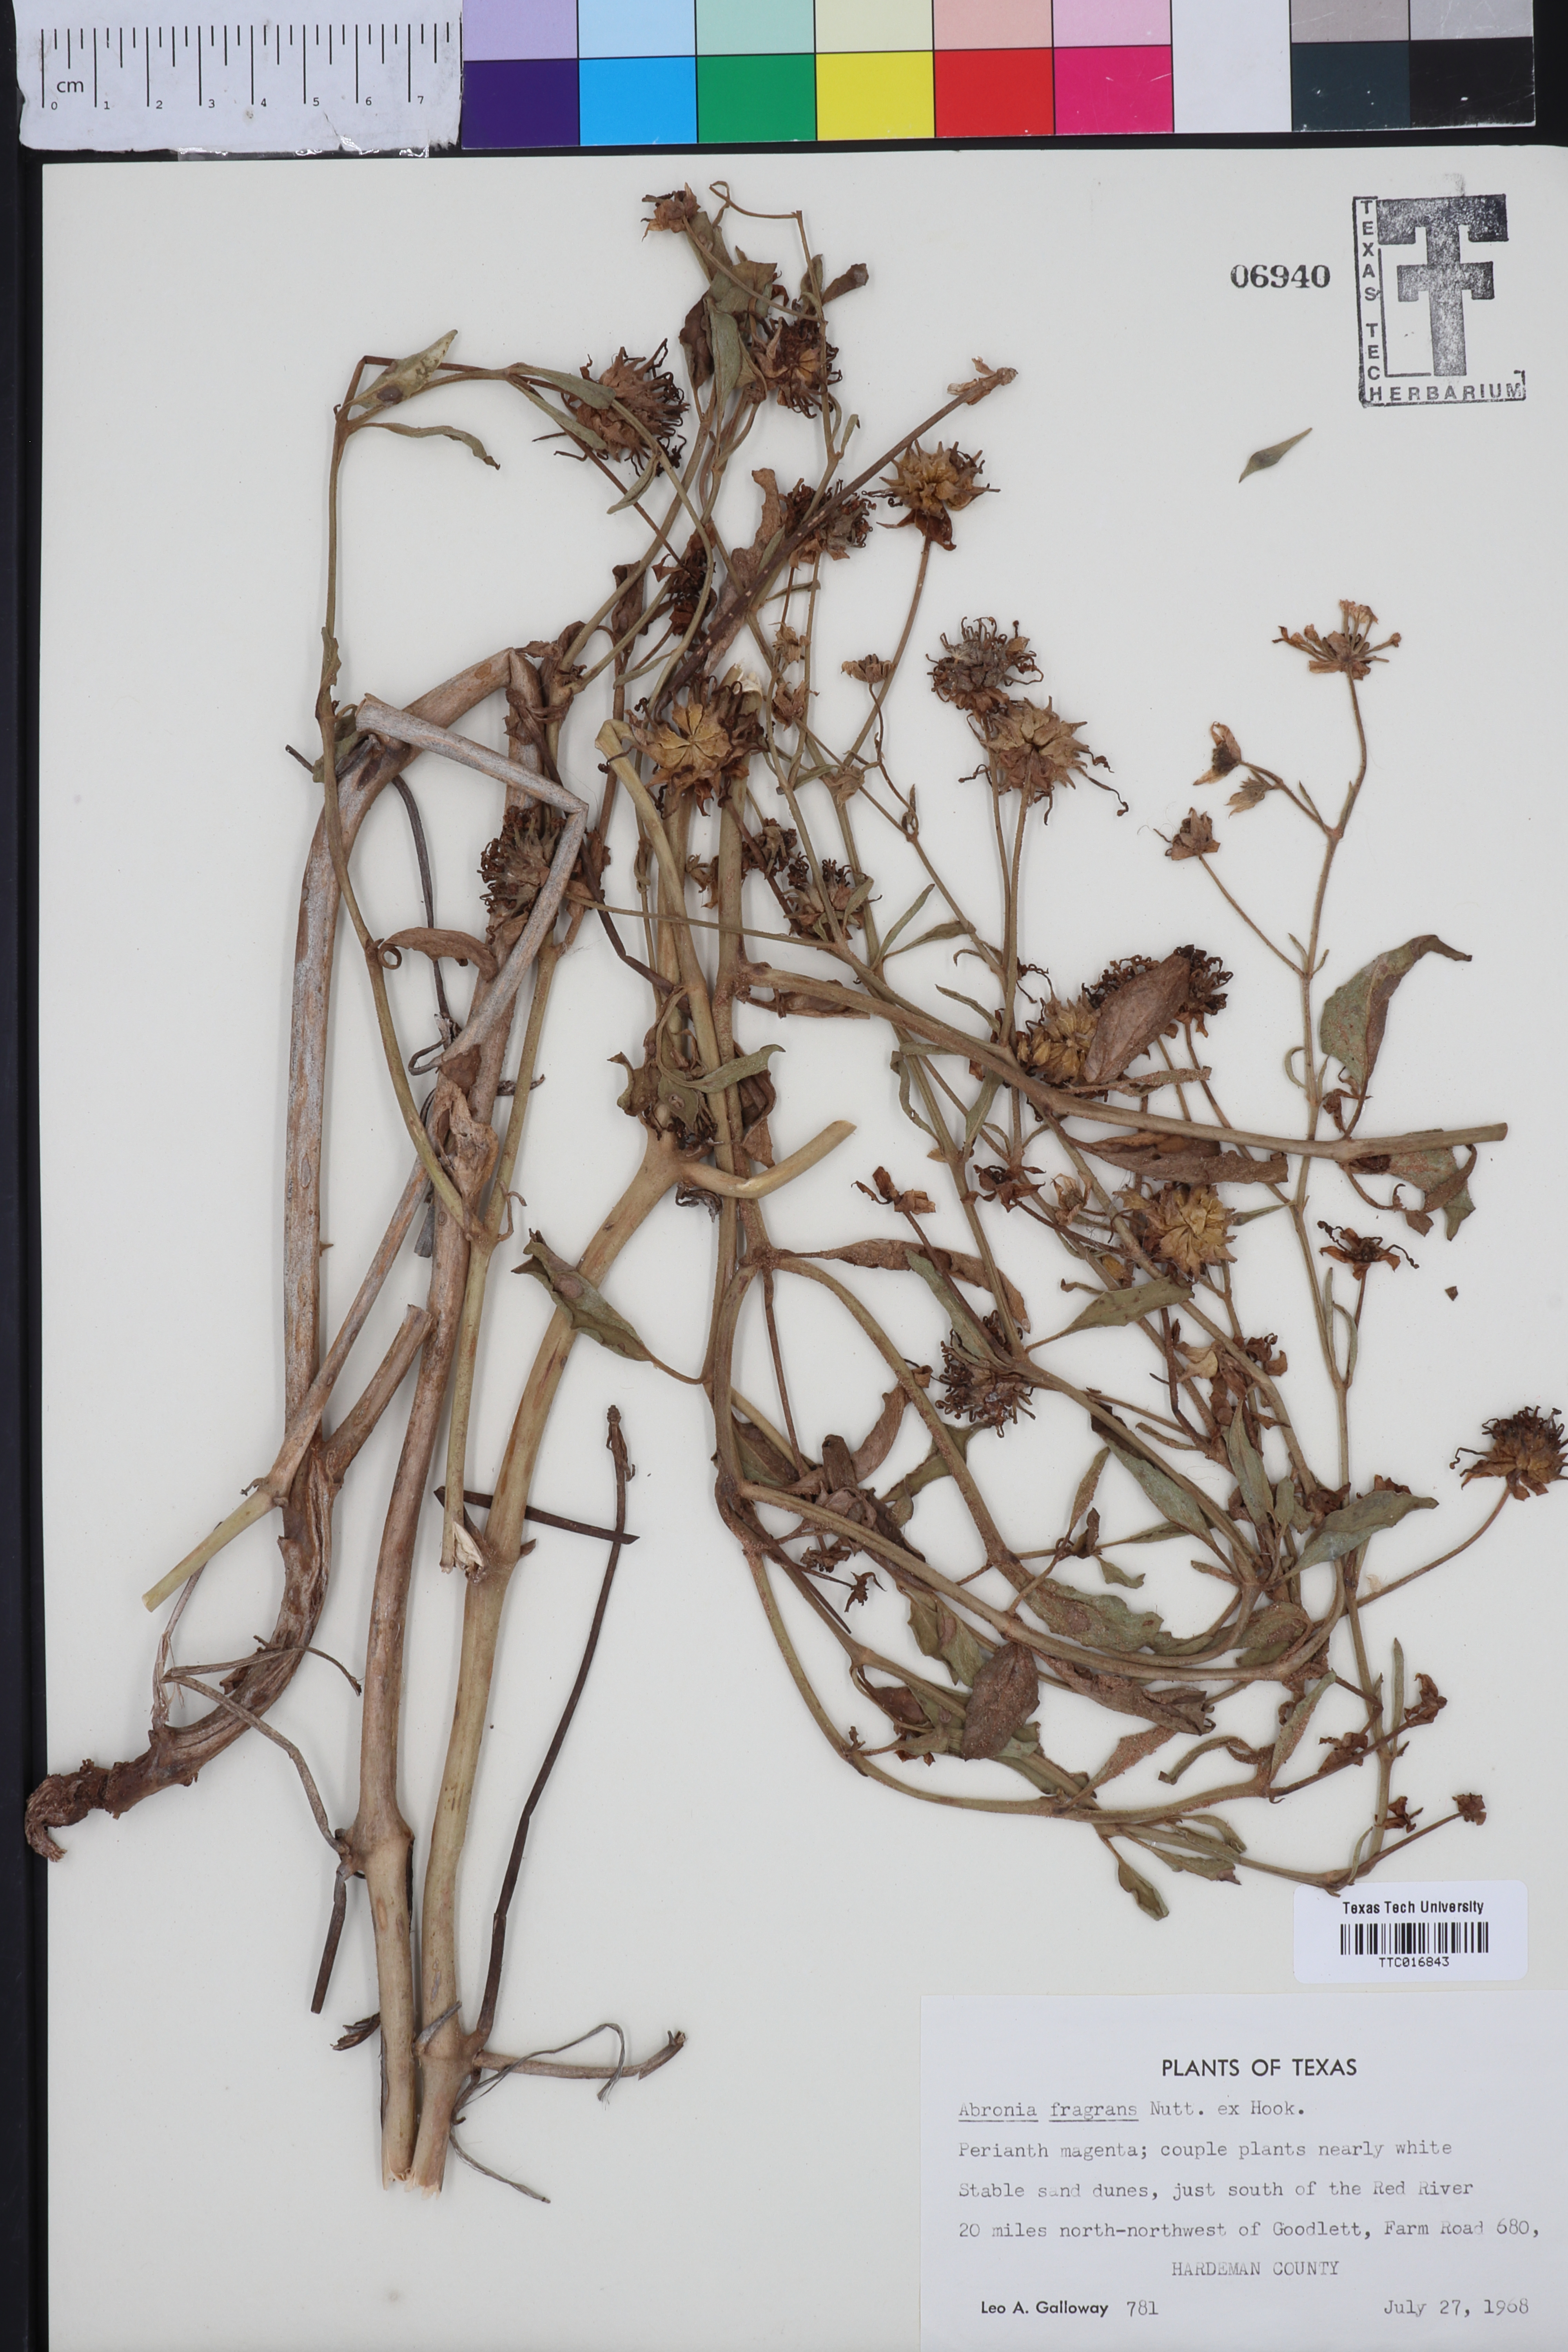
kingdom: Plantae
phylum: Tracheophyta
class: Magnoliopsida
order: Caryophyllales
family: Nyctaginaceae
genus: Abronia
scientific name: Abronia fragrans
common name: Fragrant sand-verbena
